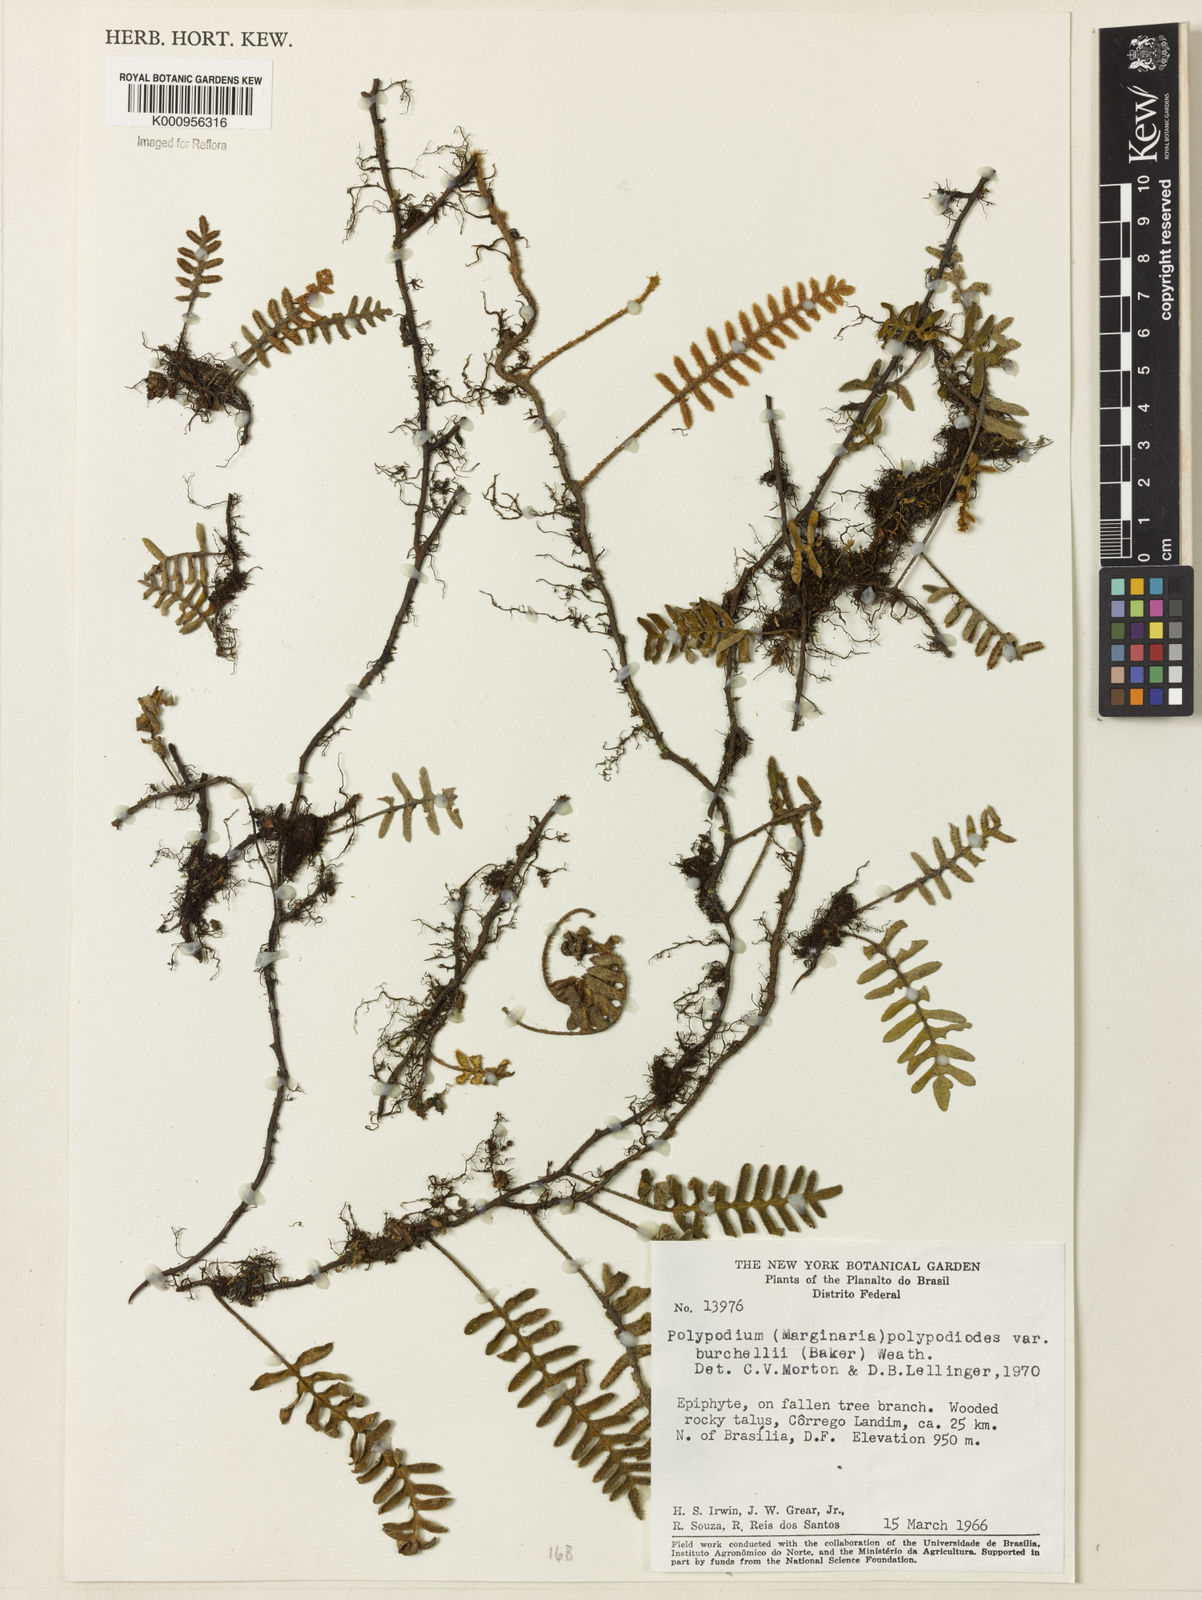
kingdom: Plantae
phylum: Tracheophyta
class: Polypodiopsida
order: Polypodiales
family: Polypodiaceae
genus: Pleopeltis
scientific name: Pleopeltis burchellii
